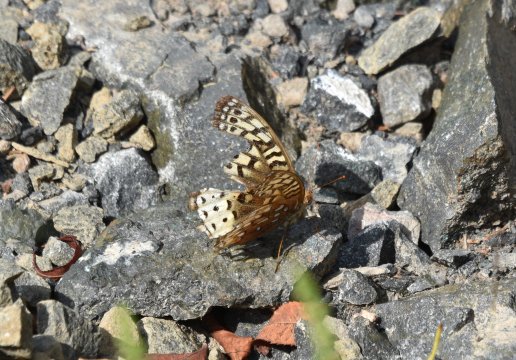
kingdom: Animalia
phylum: Arthropoda
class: Insecta
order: Lepidoptera
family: Nymphalidae
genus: Speyeria
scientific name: Speyeria atlantis
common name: Atlantis Fritillary
